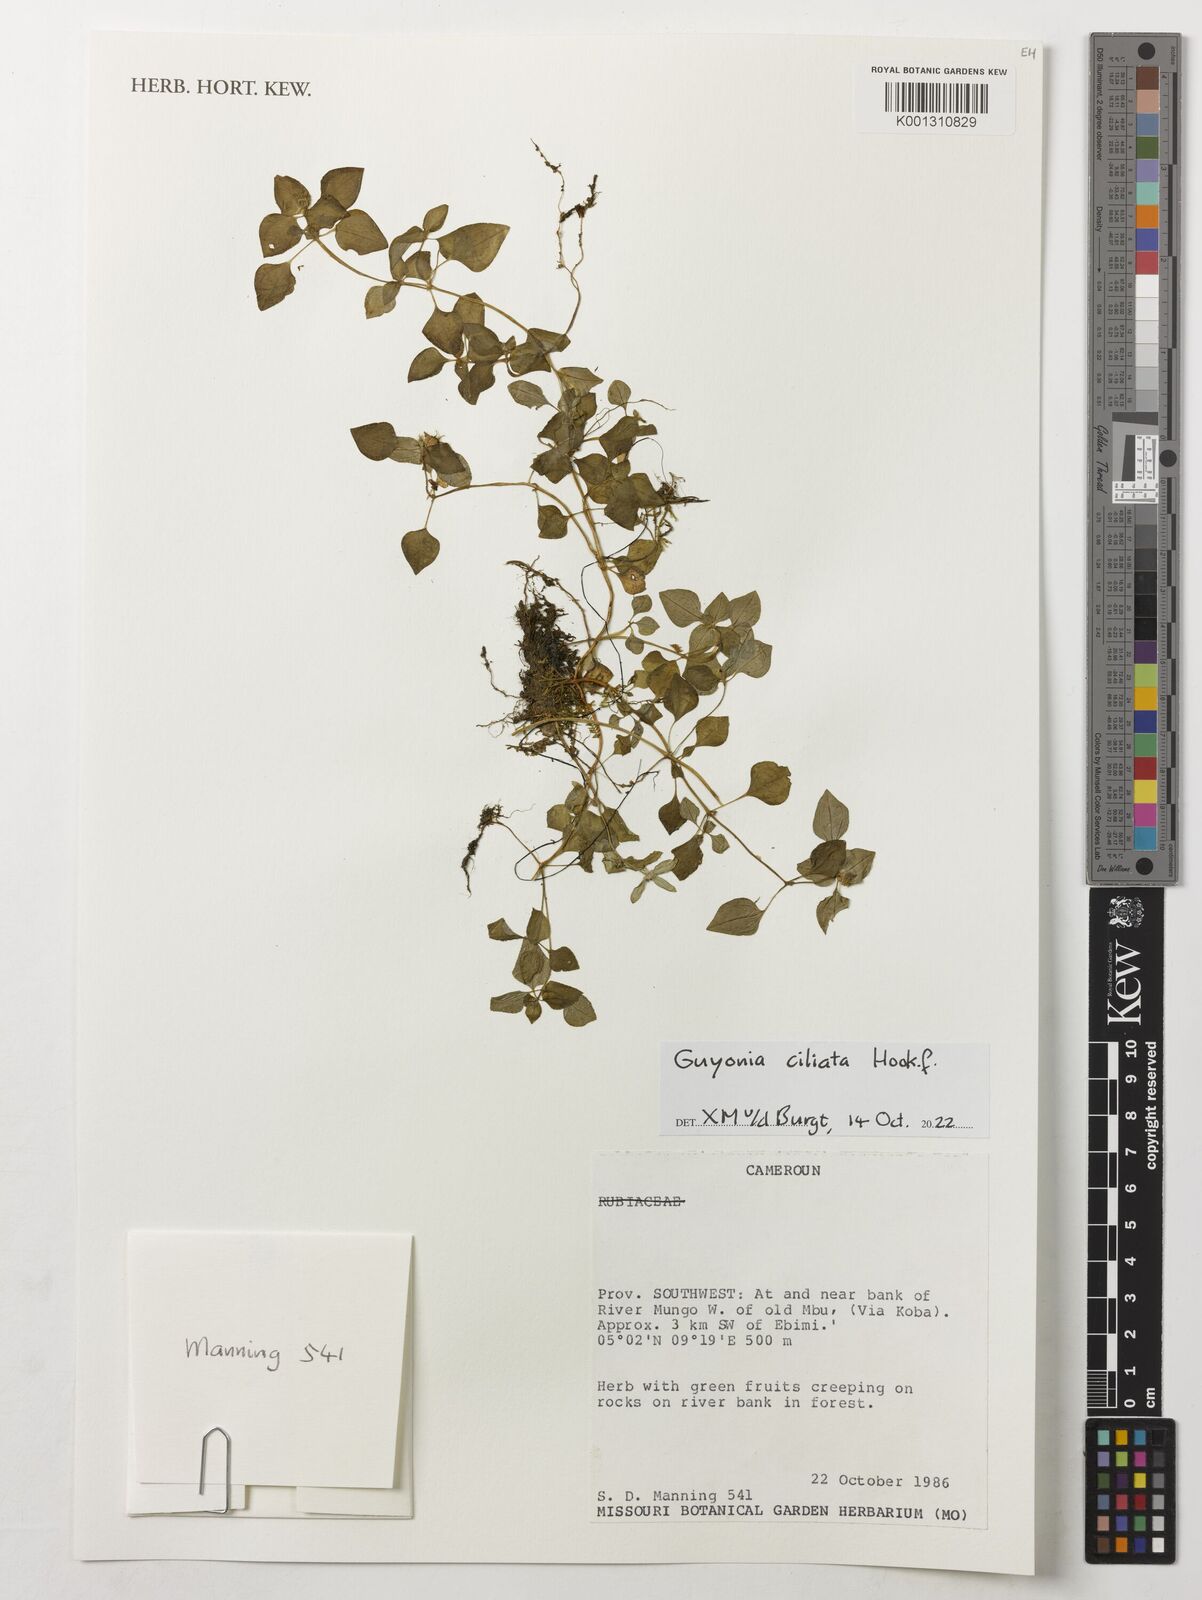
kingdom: Plantae
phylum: Tracheophyta
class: Magnoliopsida
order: Myrtales
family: Melastomataceae
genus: Guyonia
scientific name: Guyonia ciliata
